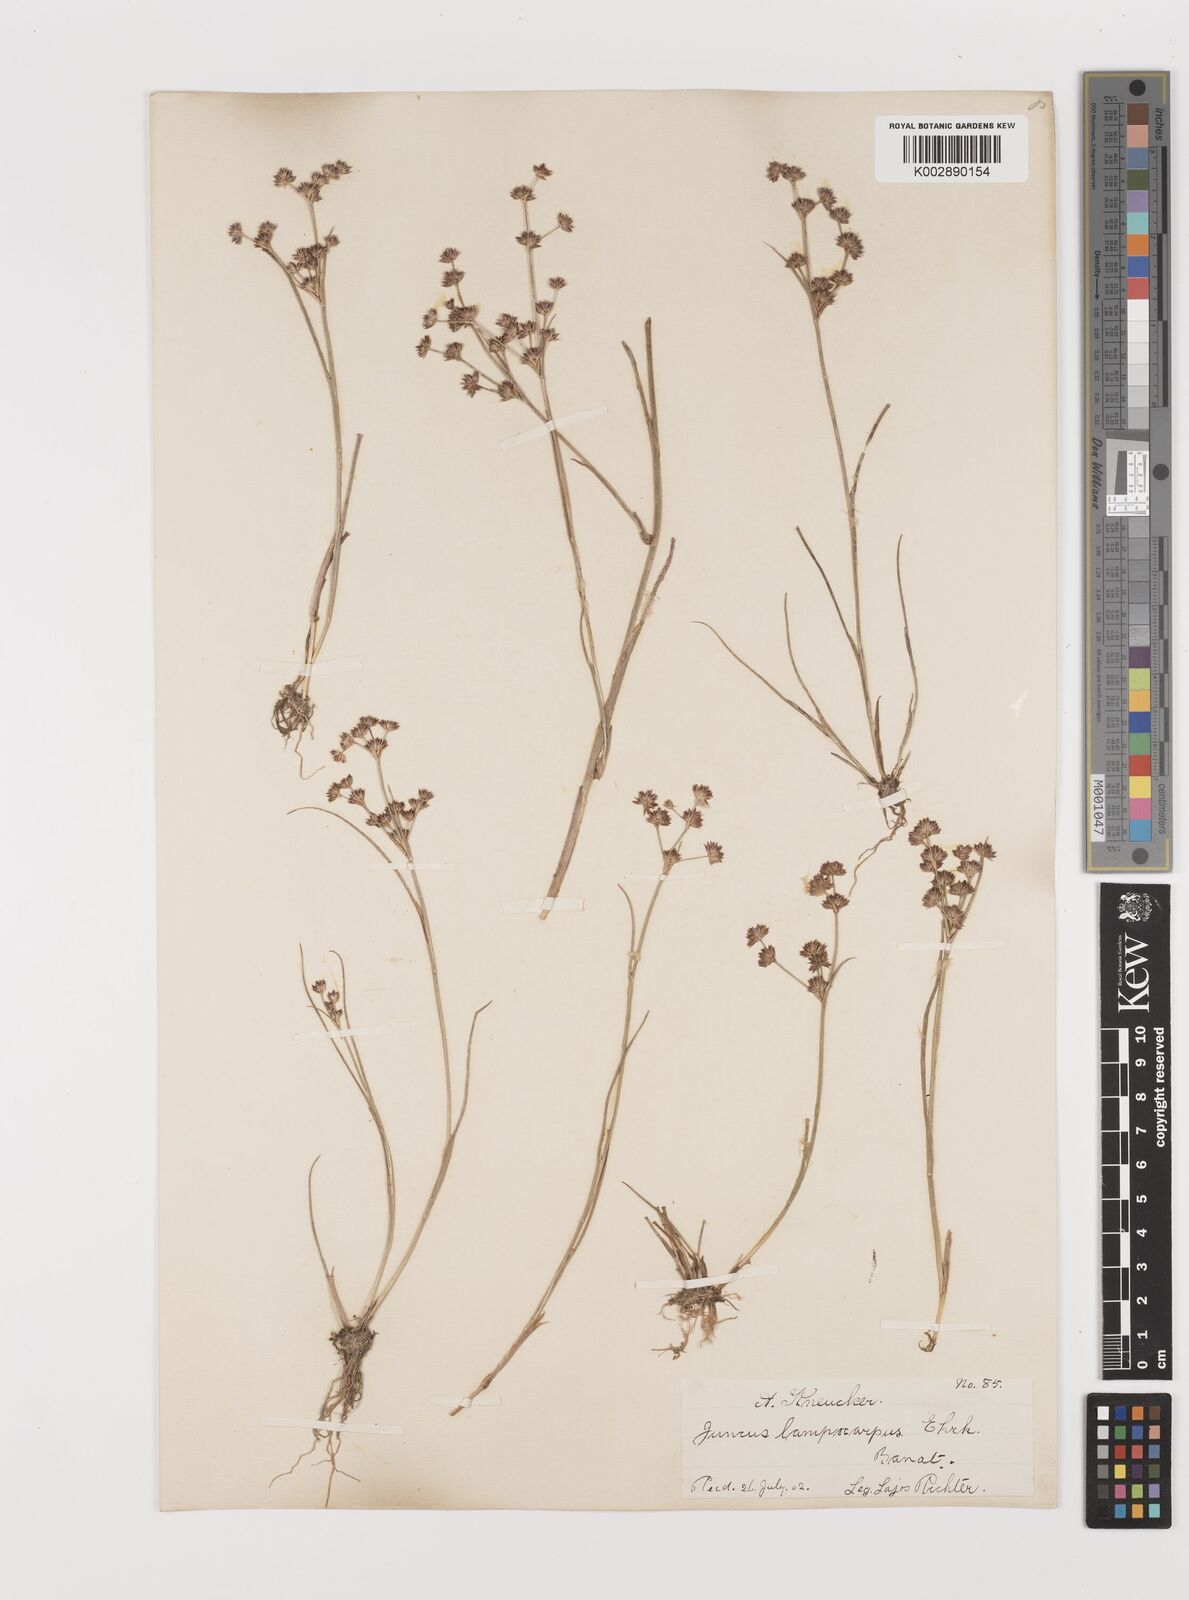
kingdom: Plantae
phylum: Tracheophyta
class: Liliopsida
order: Poales
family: Juncaceae
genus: Juncus
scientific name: Juncus articulatus
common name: Jointed rush
